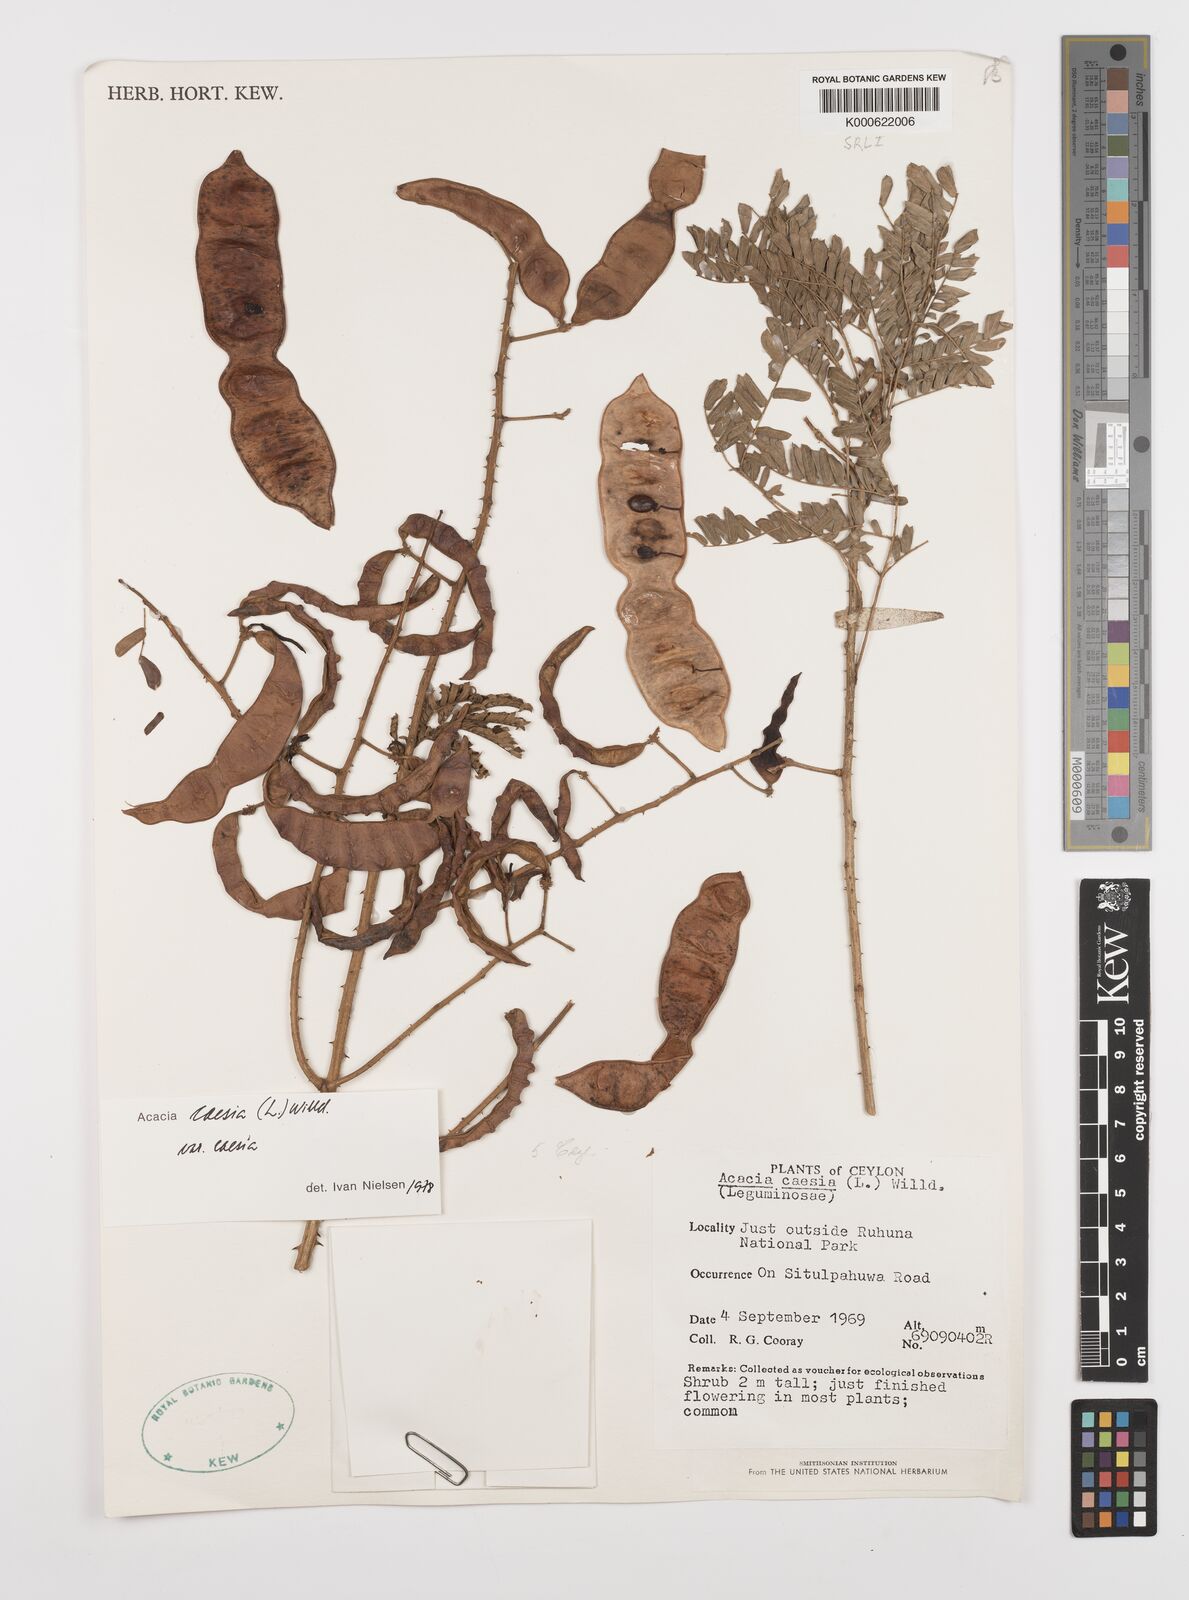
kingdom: Plantae
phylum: Tracheophyta
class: Magnoliopsida
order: Fabales
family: Fabaceae
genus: Senegalia
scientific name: Senegalia caesia
